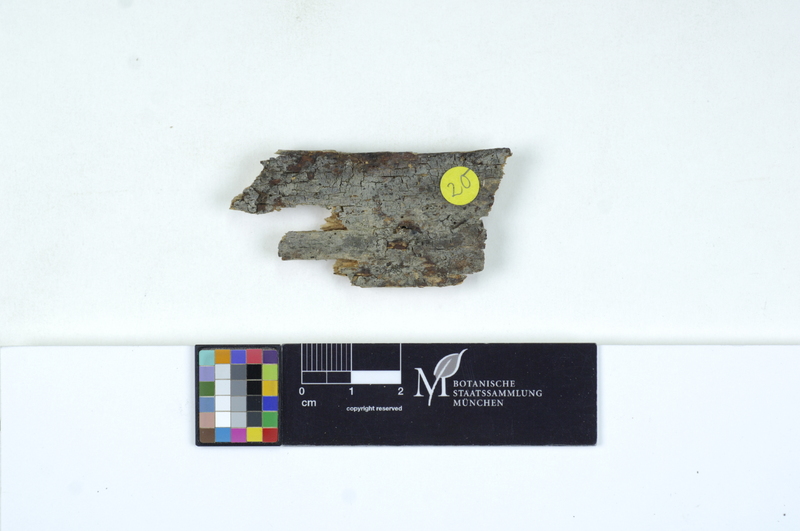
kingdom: Fungi
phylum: Basidiomycota
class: Agaricomycetes
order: Cantharellales
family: Tulasnellaceae
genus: Tulasnella
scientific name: Tulasnella eichleriana
